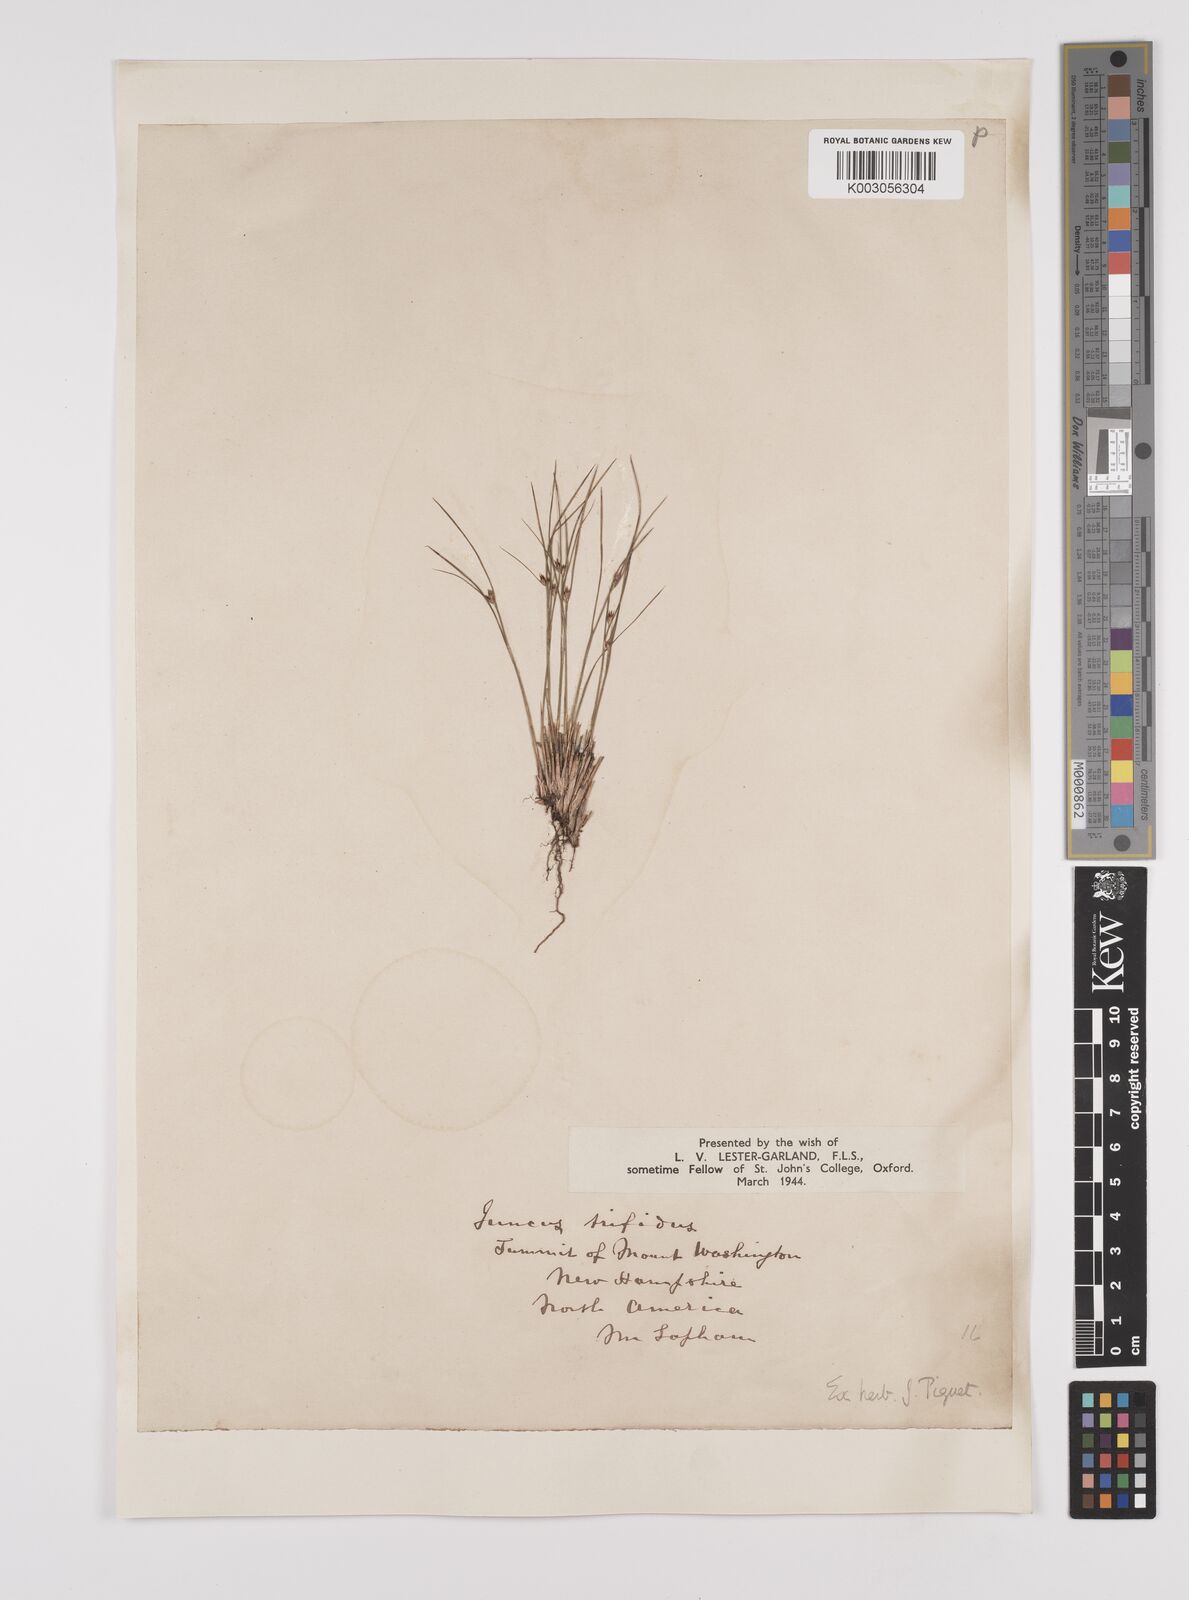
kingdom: Plantae
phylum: Tracheophyta
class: Liliopsida
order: Poales
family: Juncaceae
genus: Oreojuncus
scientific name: Oreojuncus trifidus
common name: Highland rush
